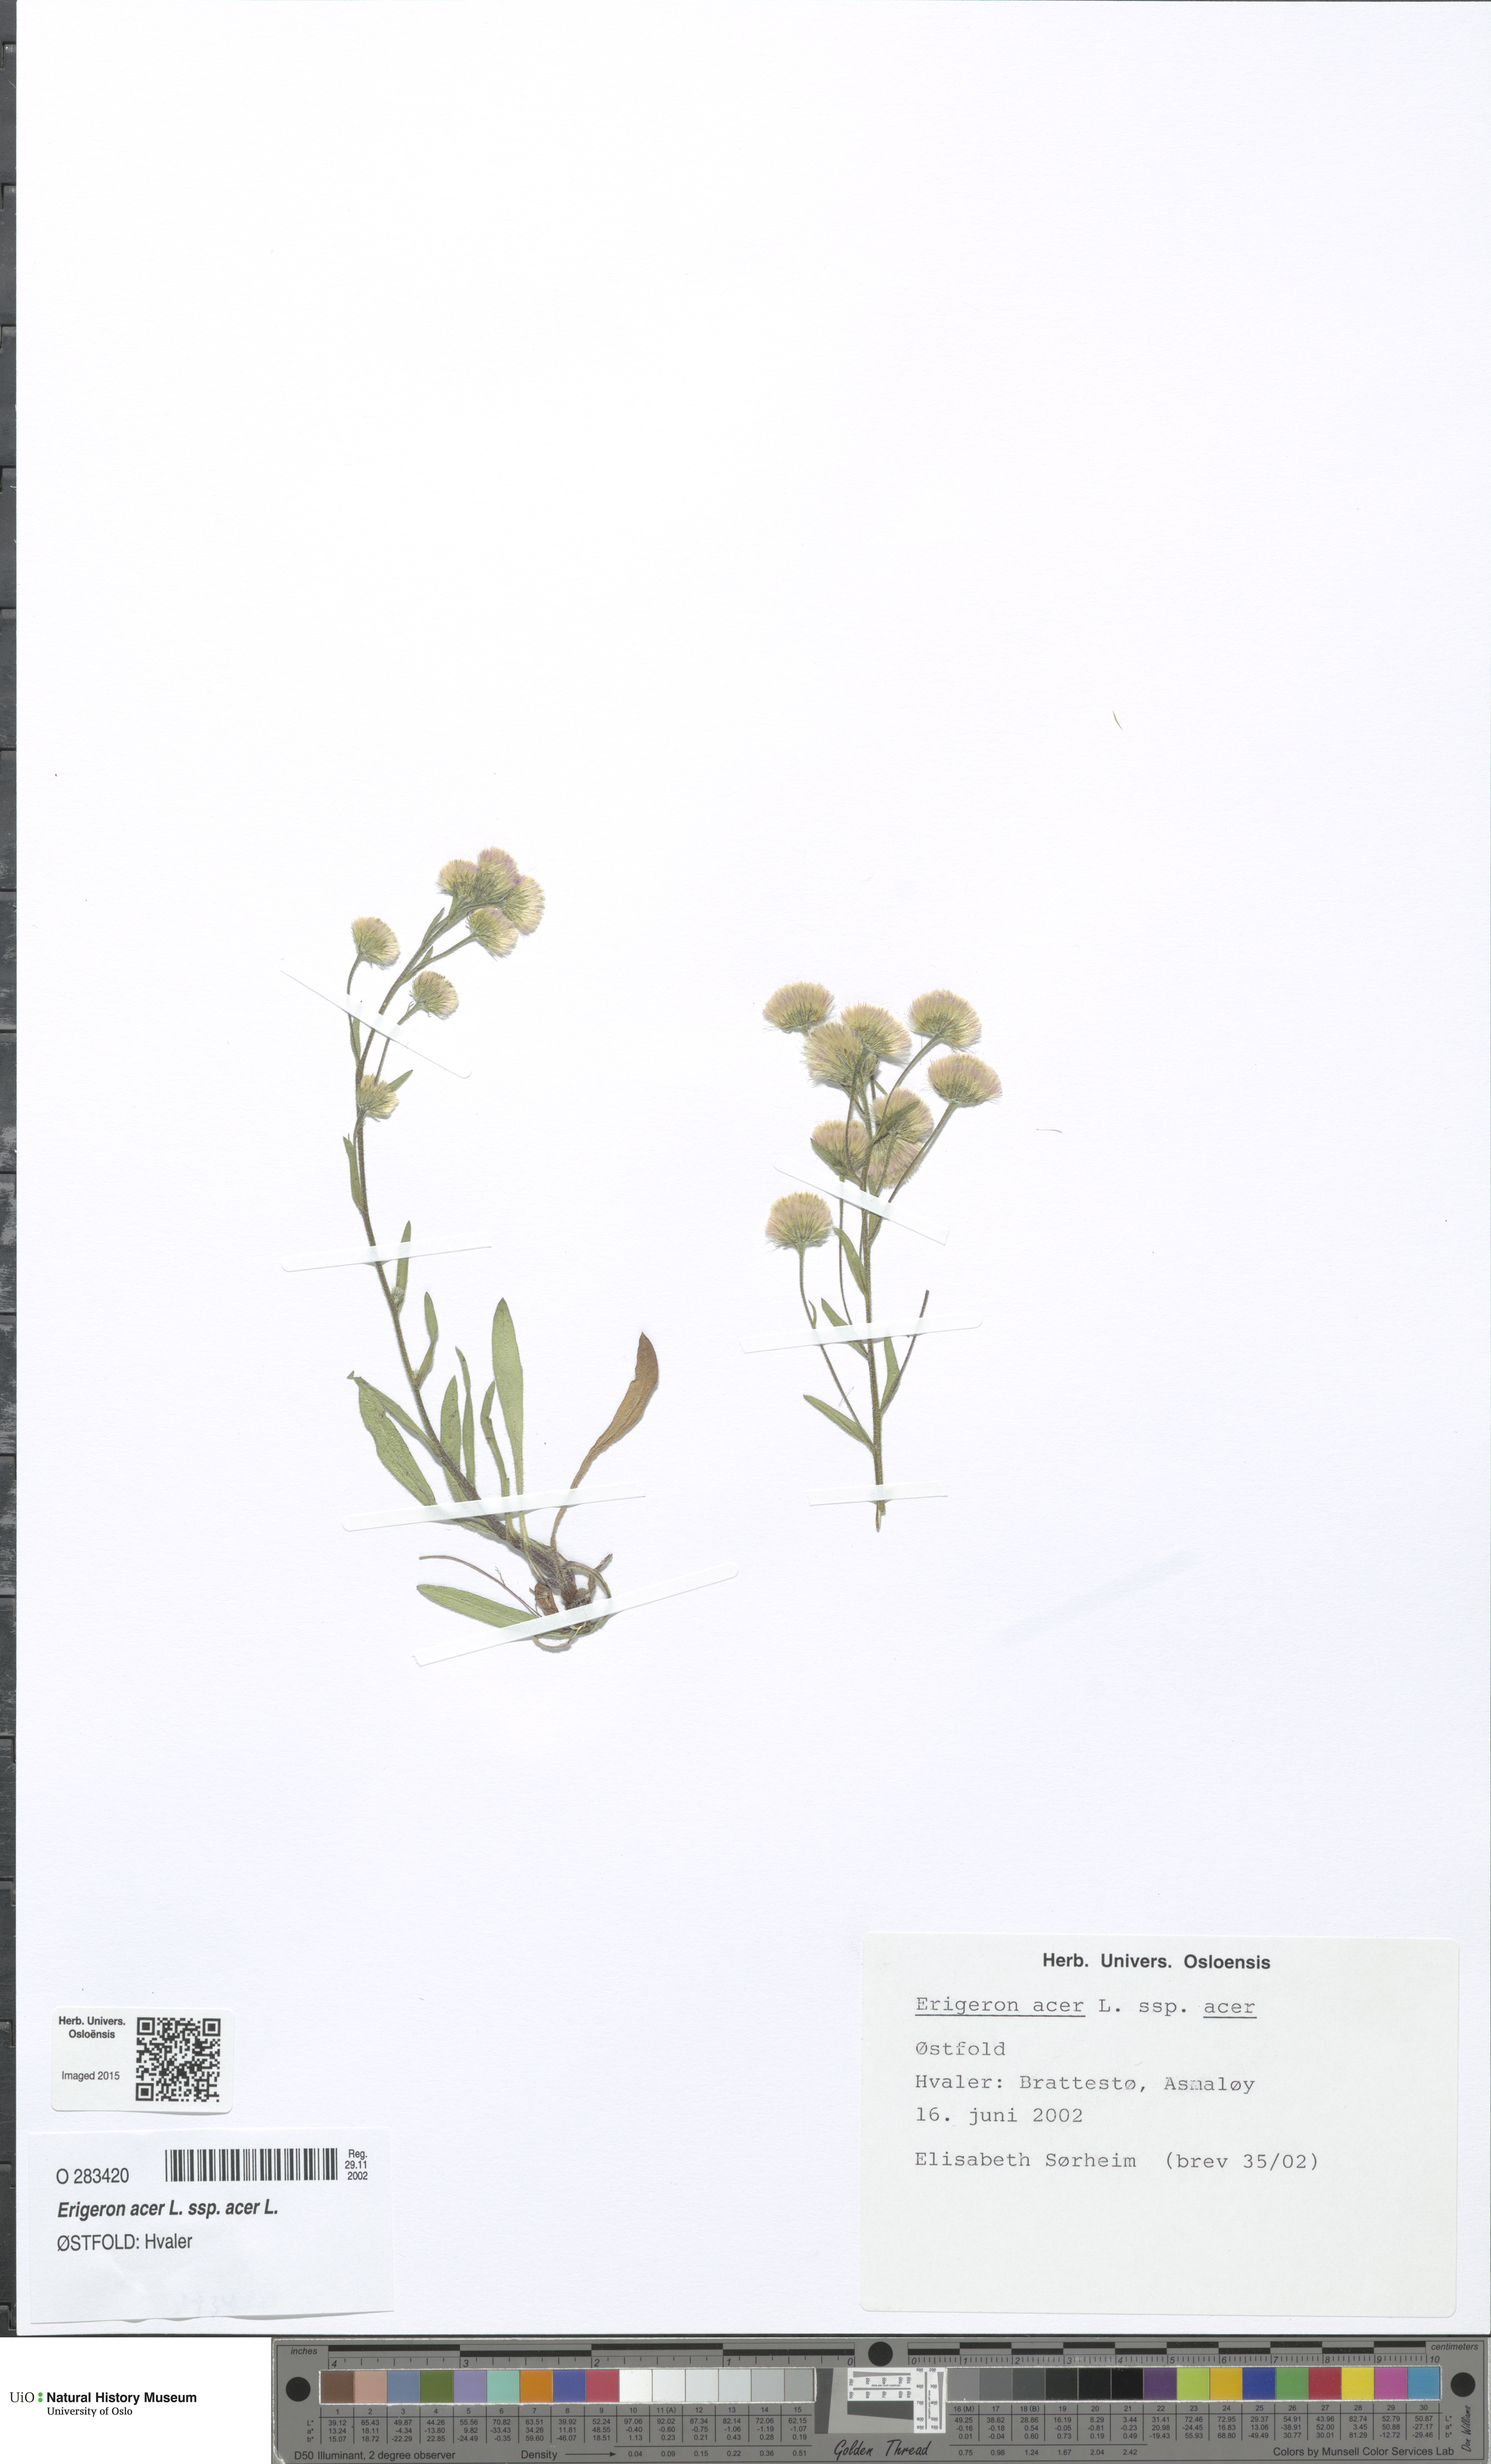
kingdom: Plantae
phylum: Tracheophyta
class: Magnoliopsida
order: Asterales
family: Asteraceae
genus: Erigeron
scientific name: Erigeron acris
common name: Blue fleabane
